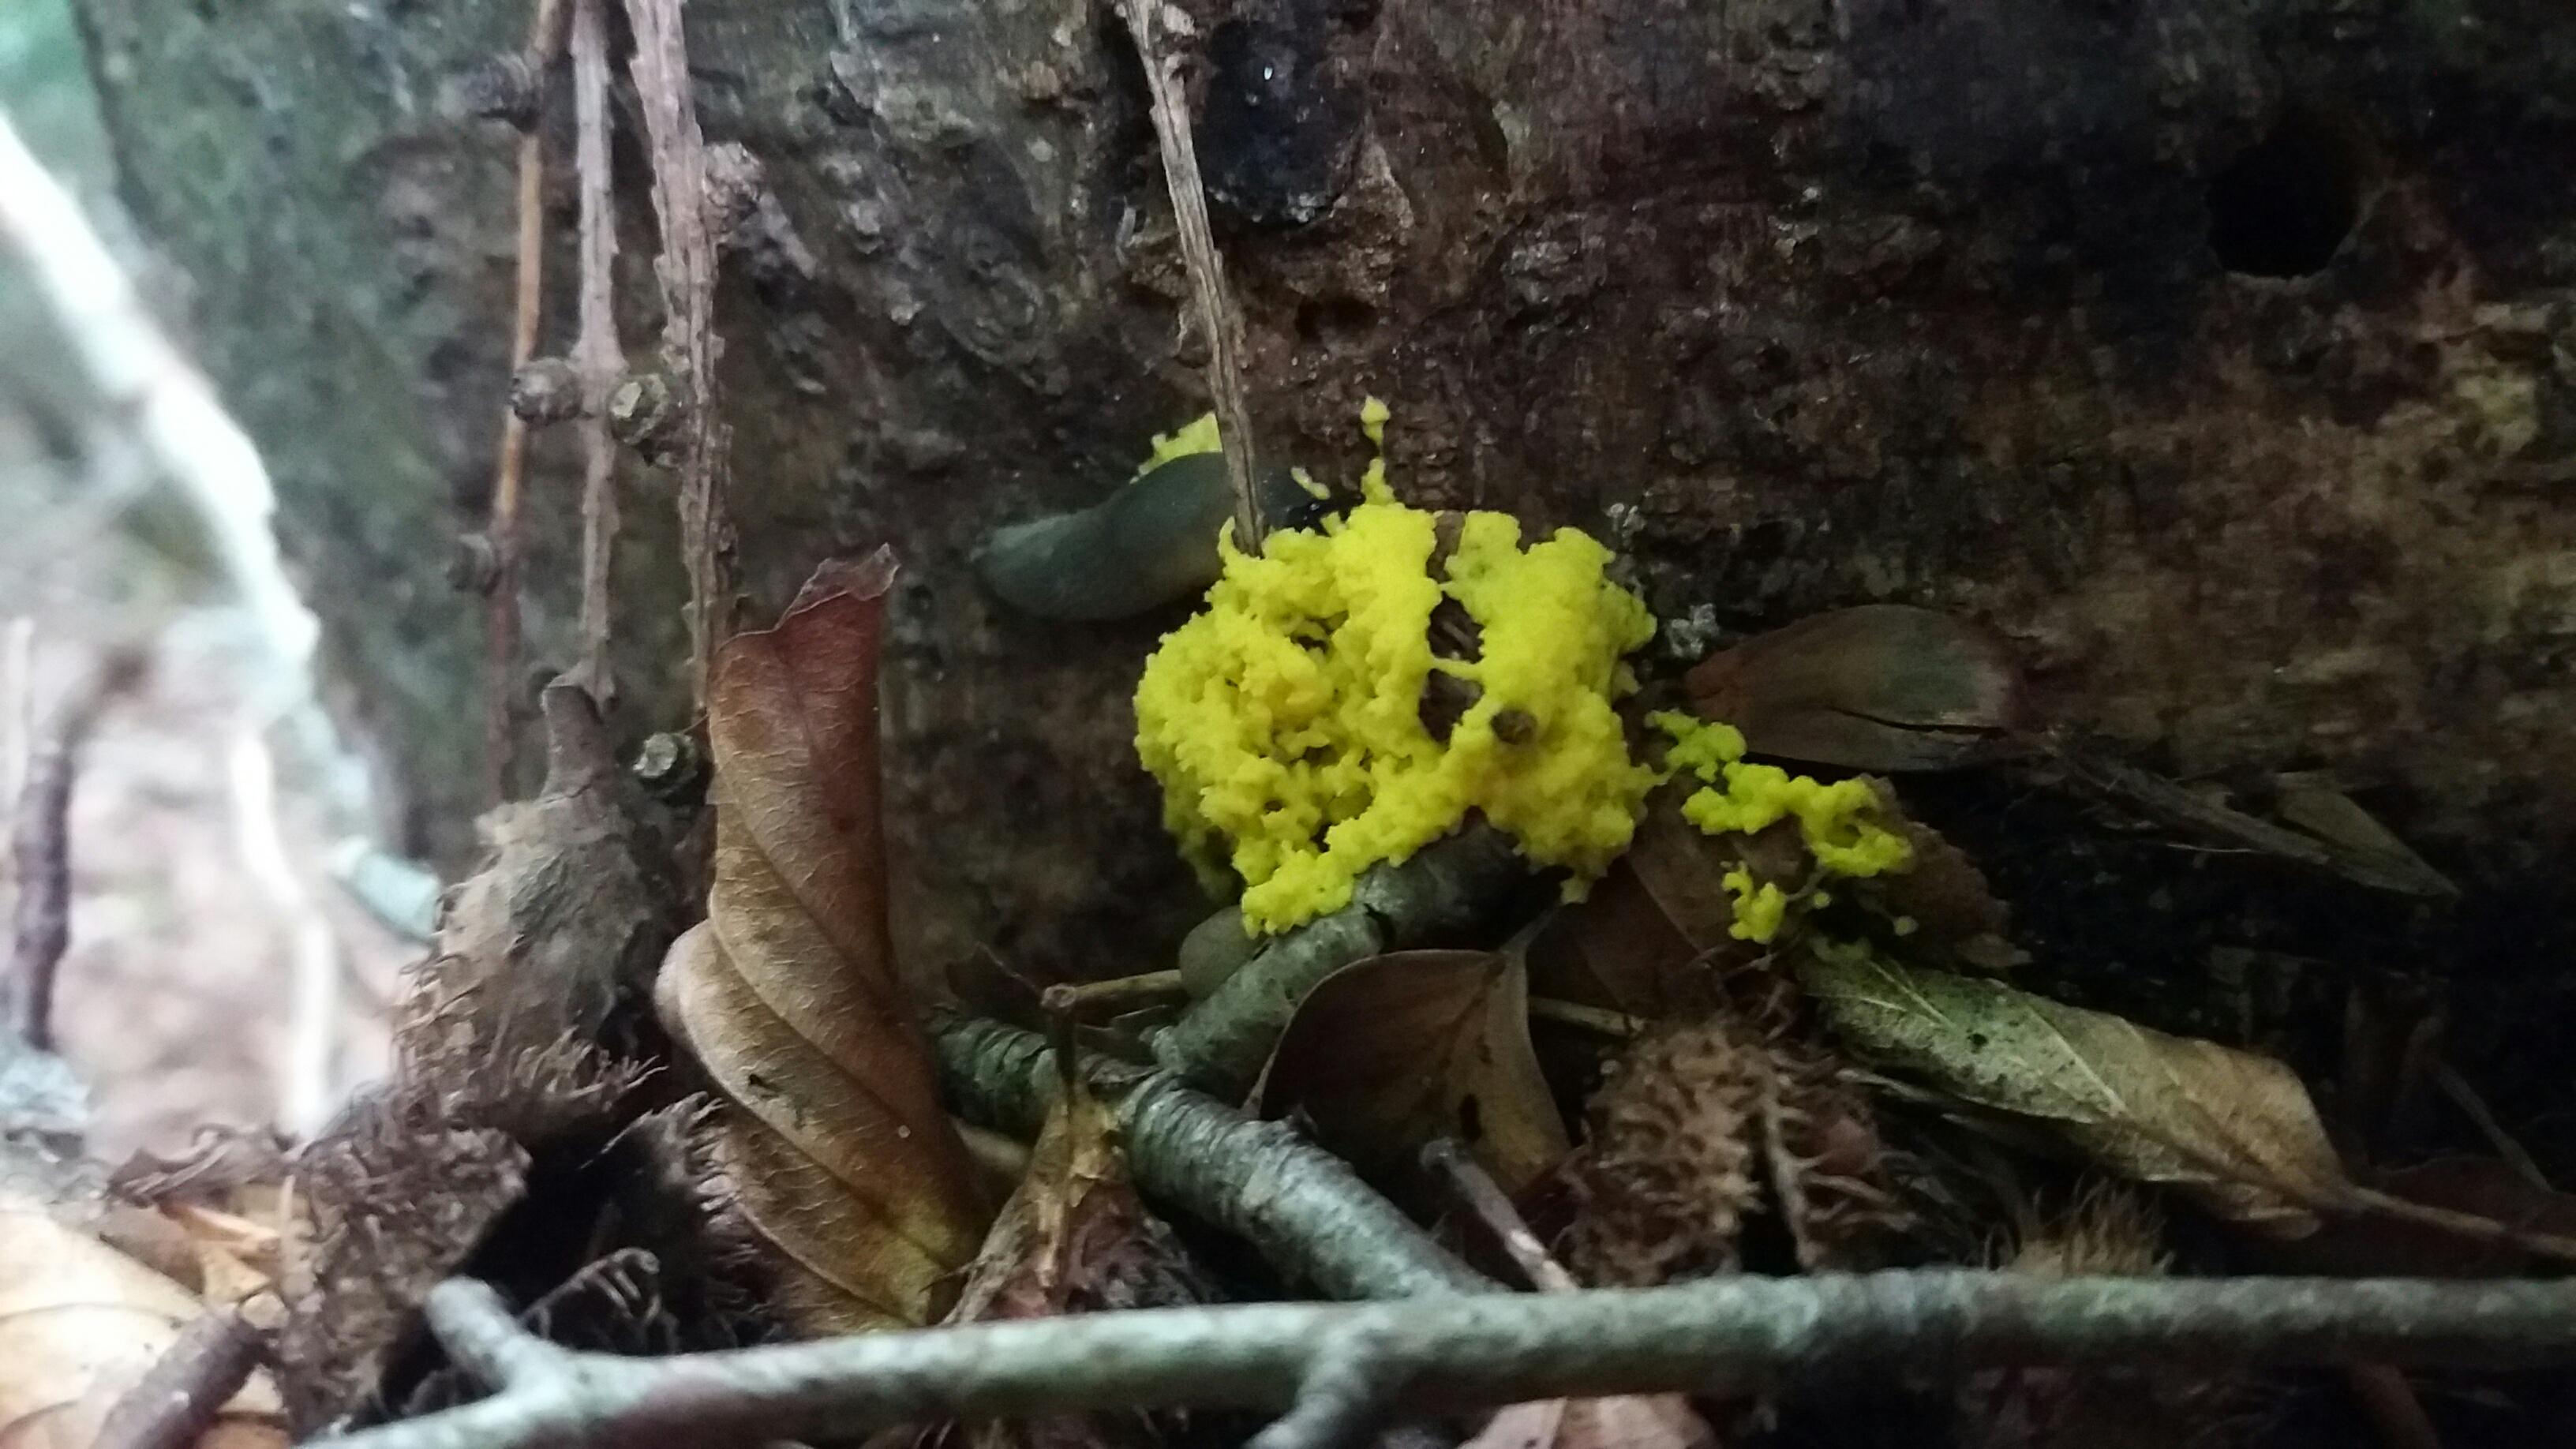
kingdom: Protozoa
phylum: Mycetozoa
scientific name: Mycetozoa
